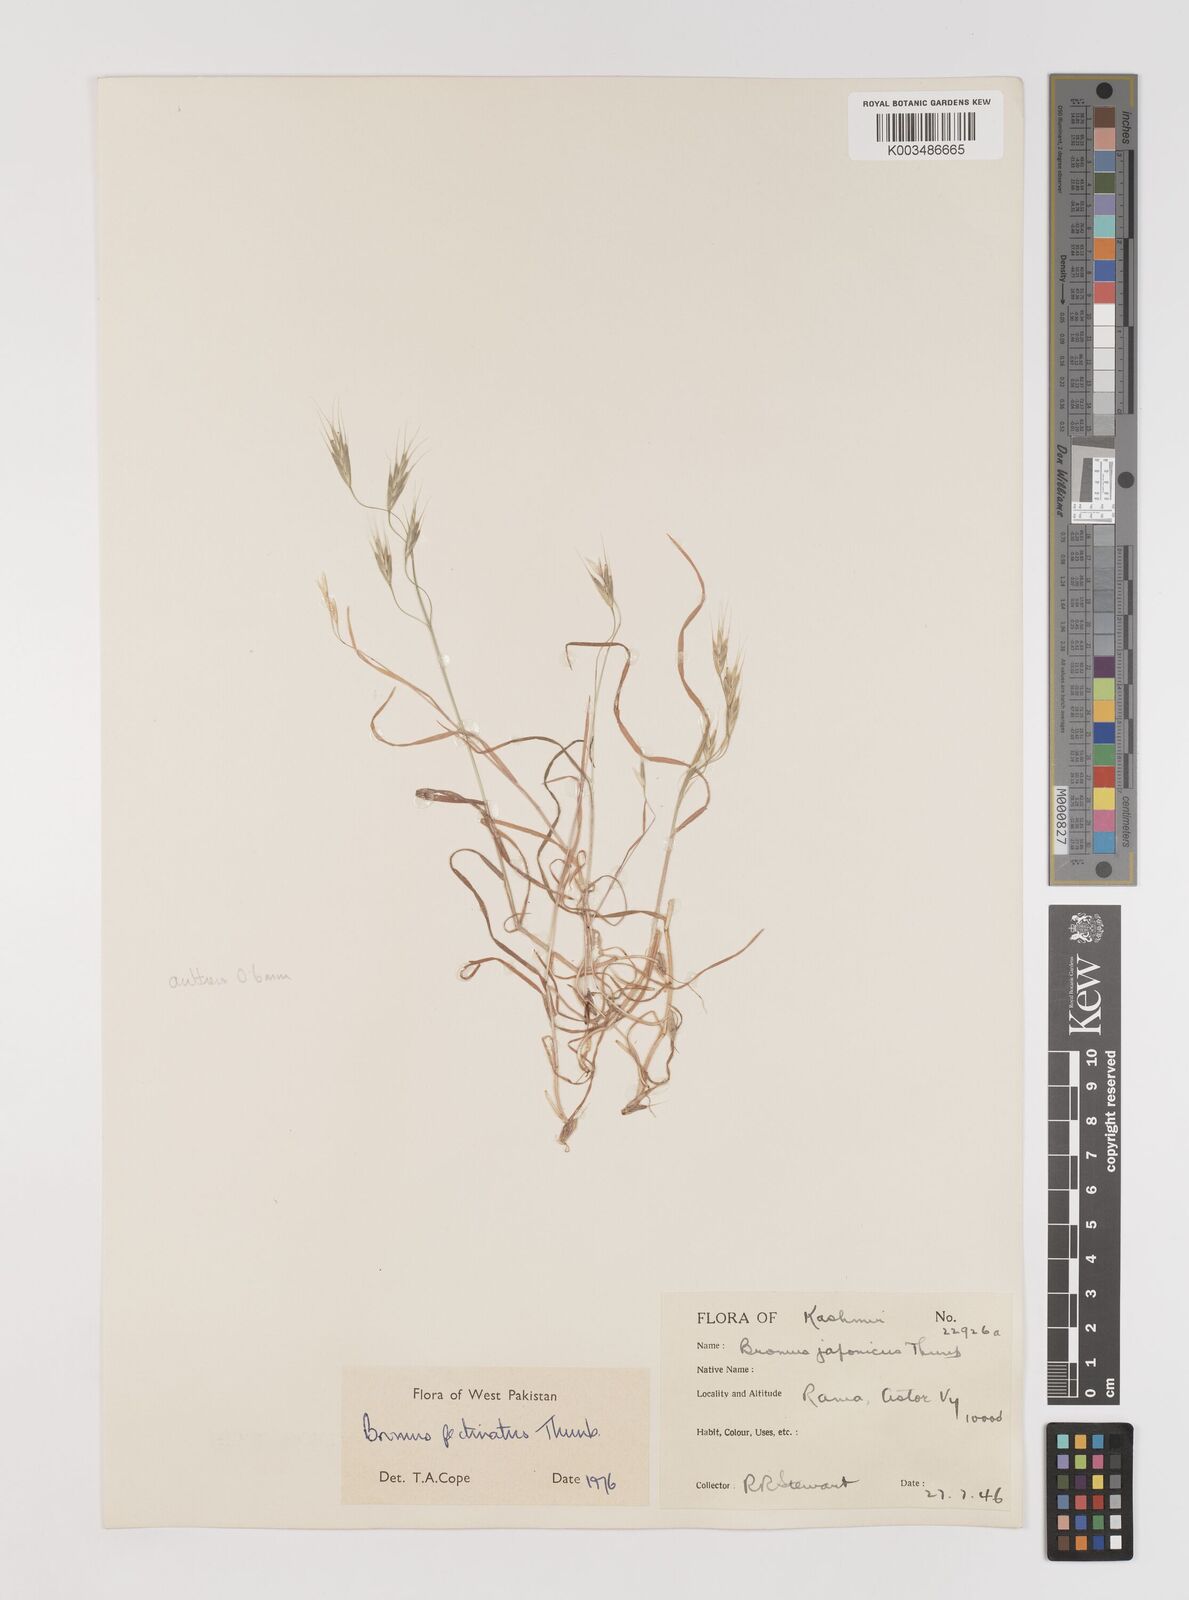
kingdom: Plantae
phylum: Tracheophyta
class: Liliopsida
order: Poales
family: Poaceae
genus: Bromus
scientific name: Bromus pectinatus
